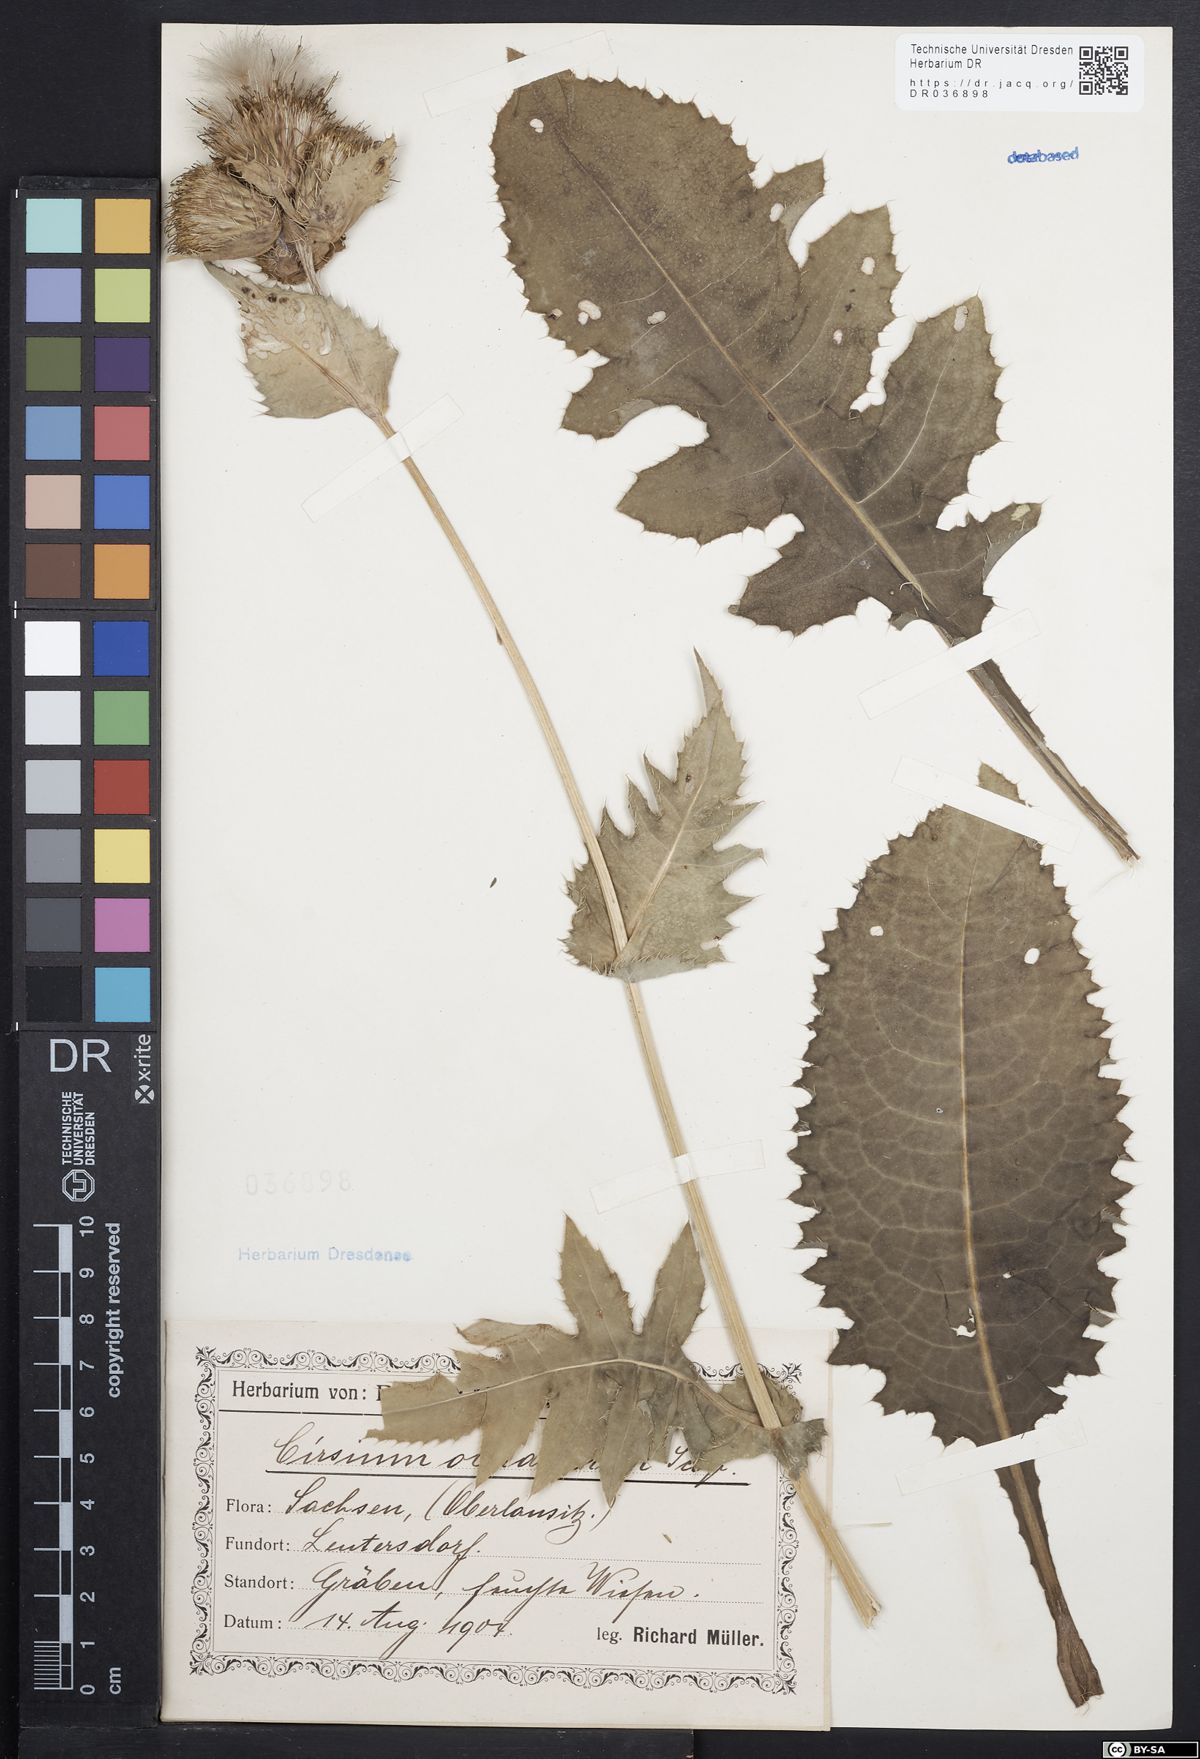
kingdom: Plantae
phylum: Tracheophyta
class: Magnoliopsida
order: Asterales
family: Asteraceae
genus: Cirsium
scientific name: Cirsium oleraceum
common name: Cabbage thistle
